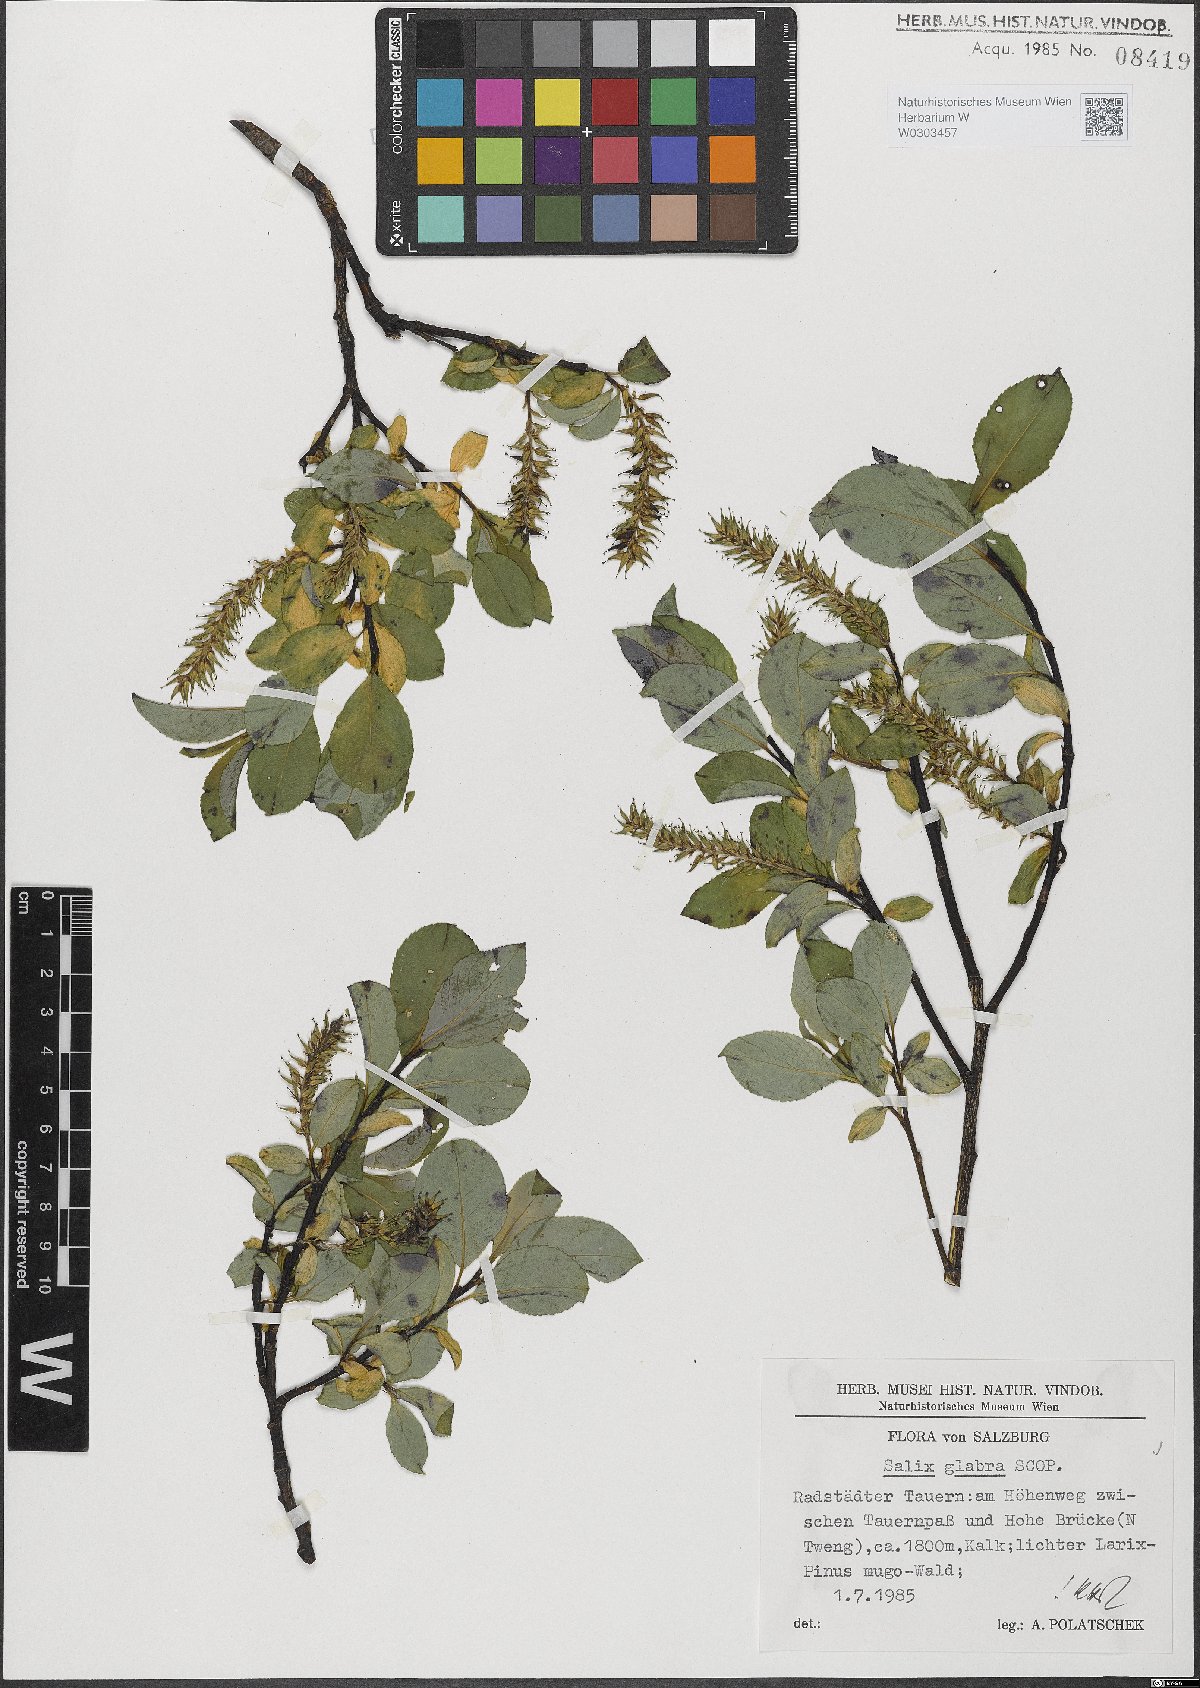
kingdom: Plantae
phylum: Tracheophyta
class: Magnoliopsida
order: Malpighiales
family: Salicaceae
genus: Salix
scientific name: Salix glabra
